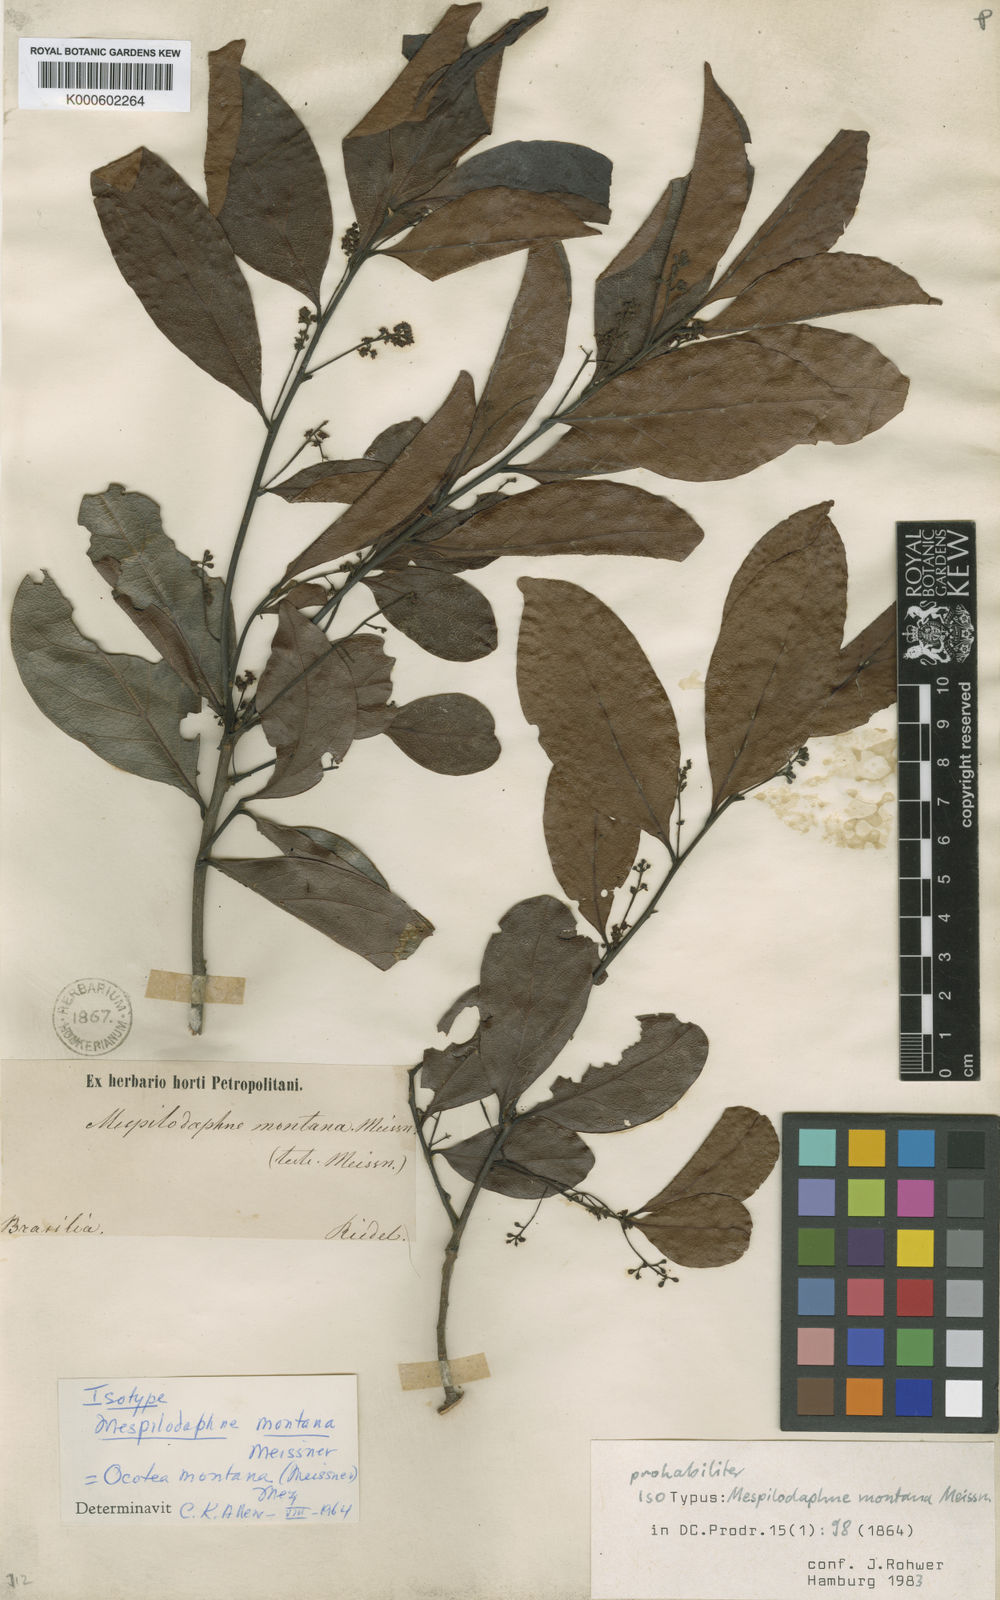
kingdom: Plantae
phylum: Tracheophyta
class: Magnoliopsida
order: Laurales
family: Lauraceae
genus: Mespilodaphne
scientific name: Mespilodaphne montana
